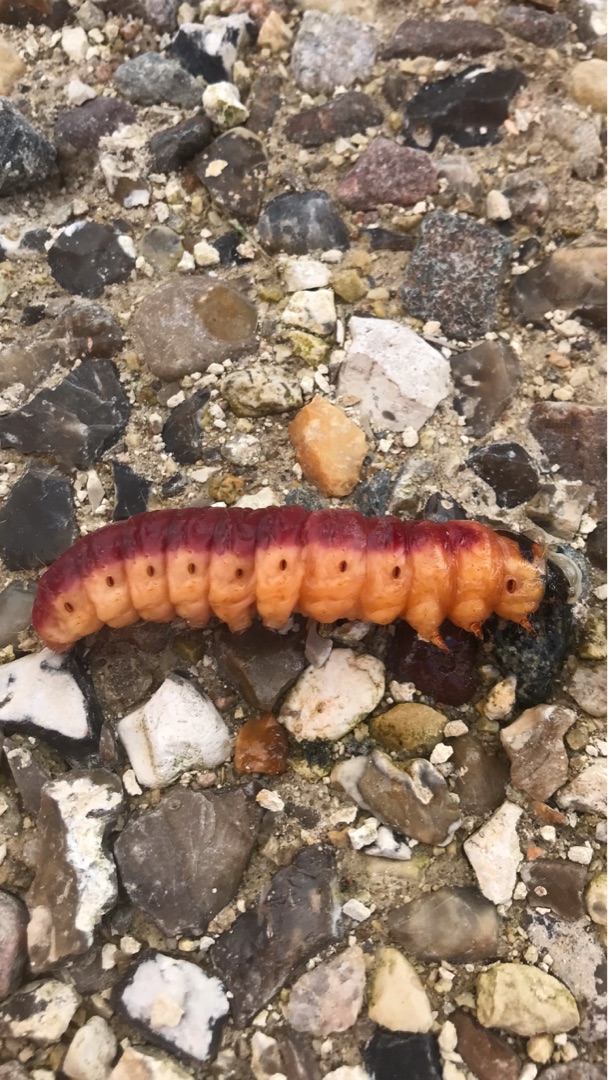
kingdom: Animalia
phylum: Arthropoda
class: Insecta
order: Lepidoptera
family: Cossidae
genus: Cossus
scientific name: Cossus cossus
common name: Pileborer
